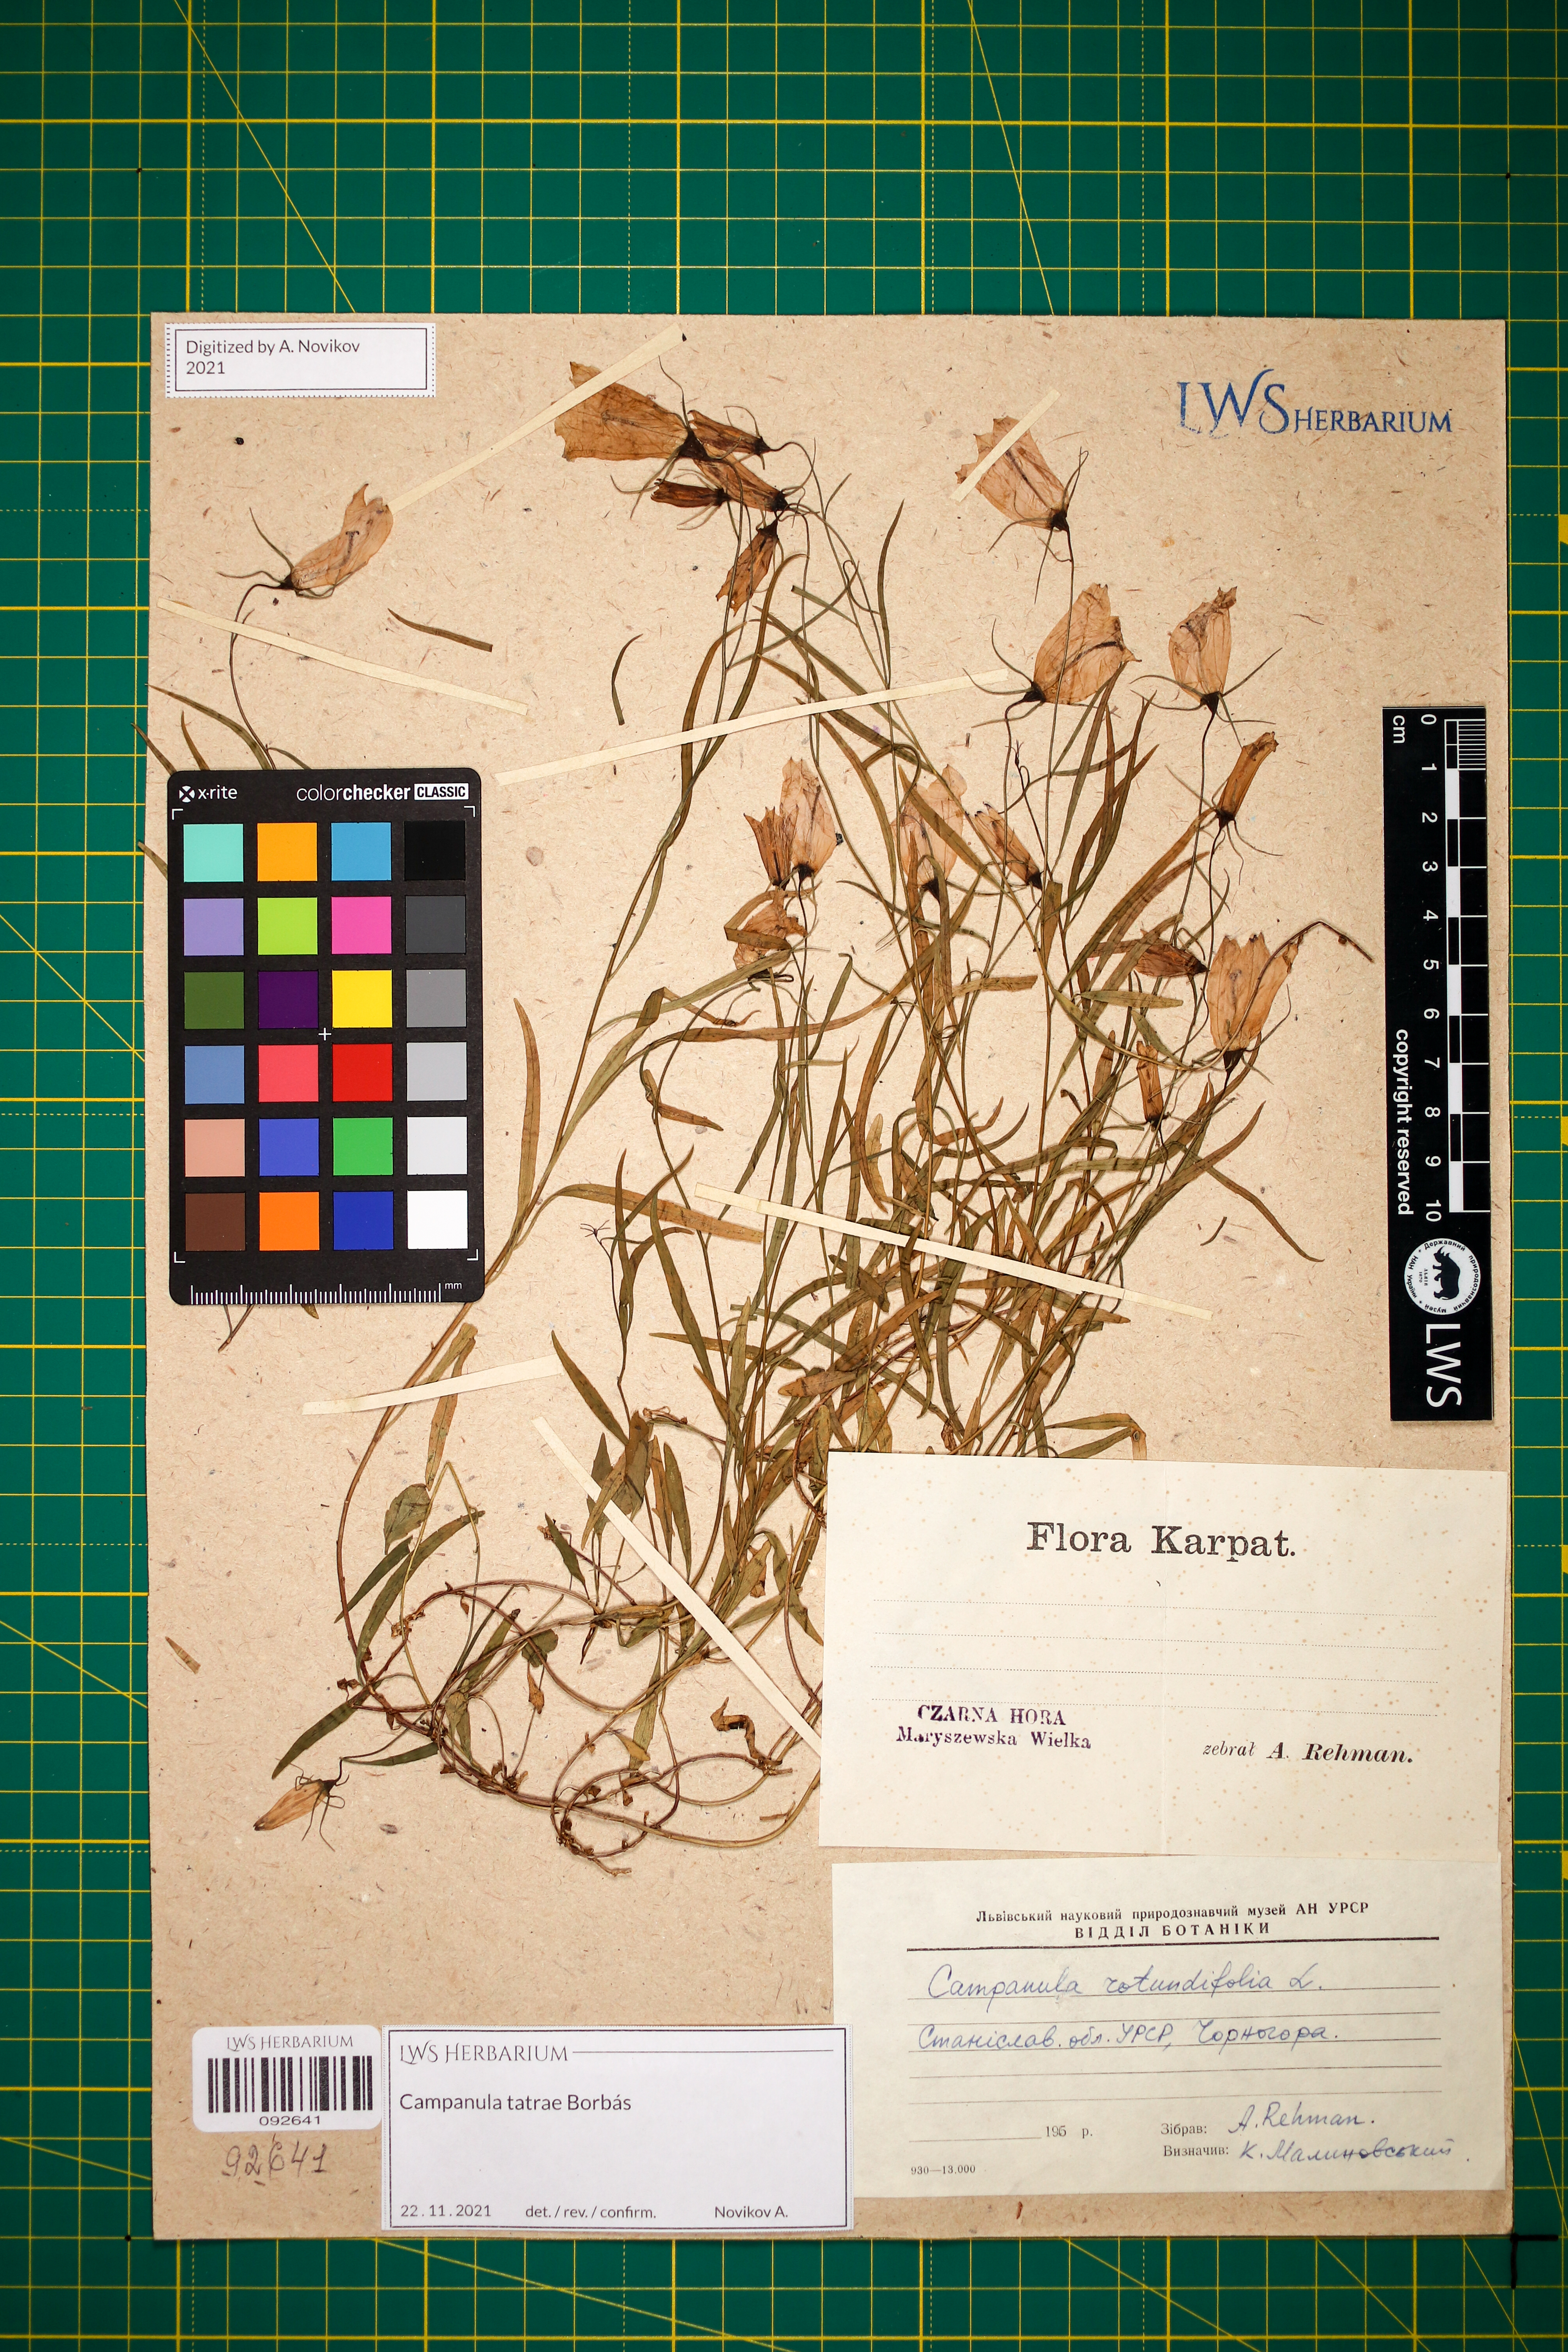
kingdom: Plantae
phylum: Tracheophyta
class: Magnoliopsida
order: Asterales
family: Campanulaceae
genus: Campanula
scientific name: Campanula tatrae
